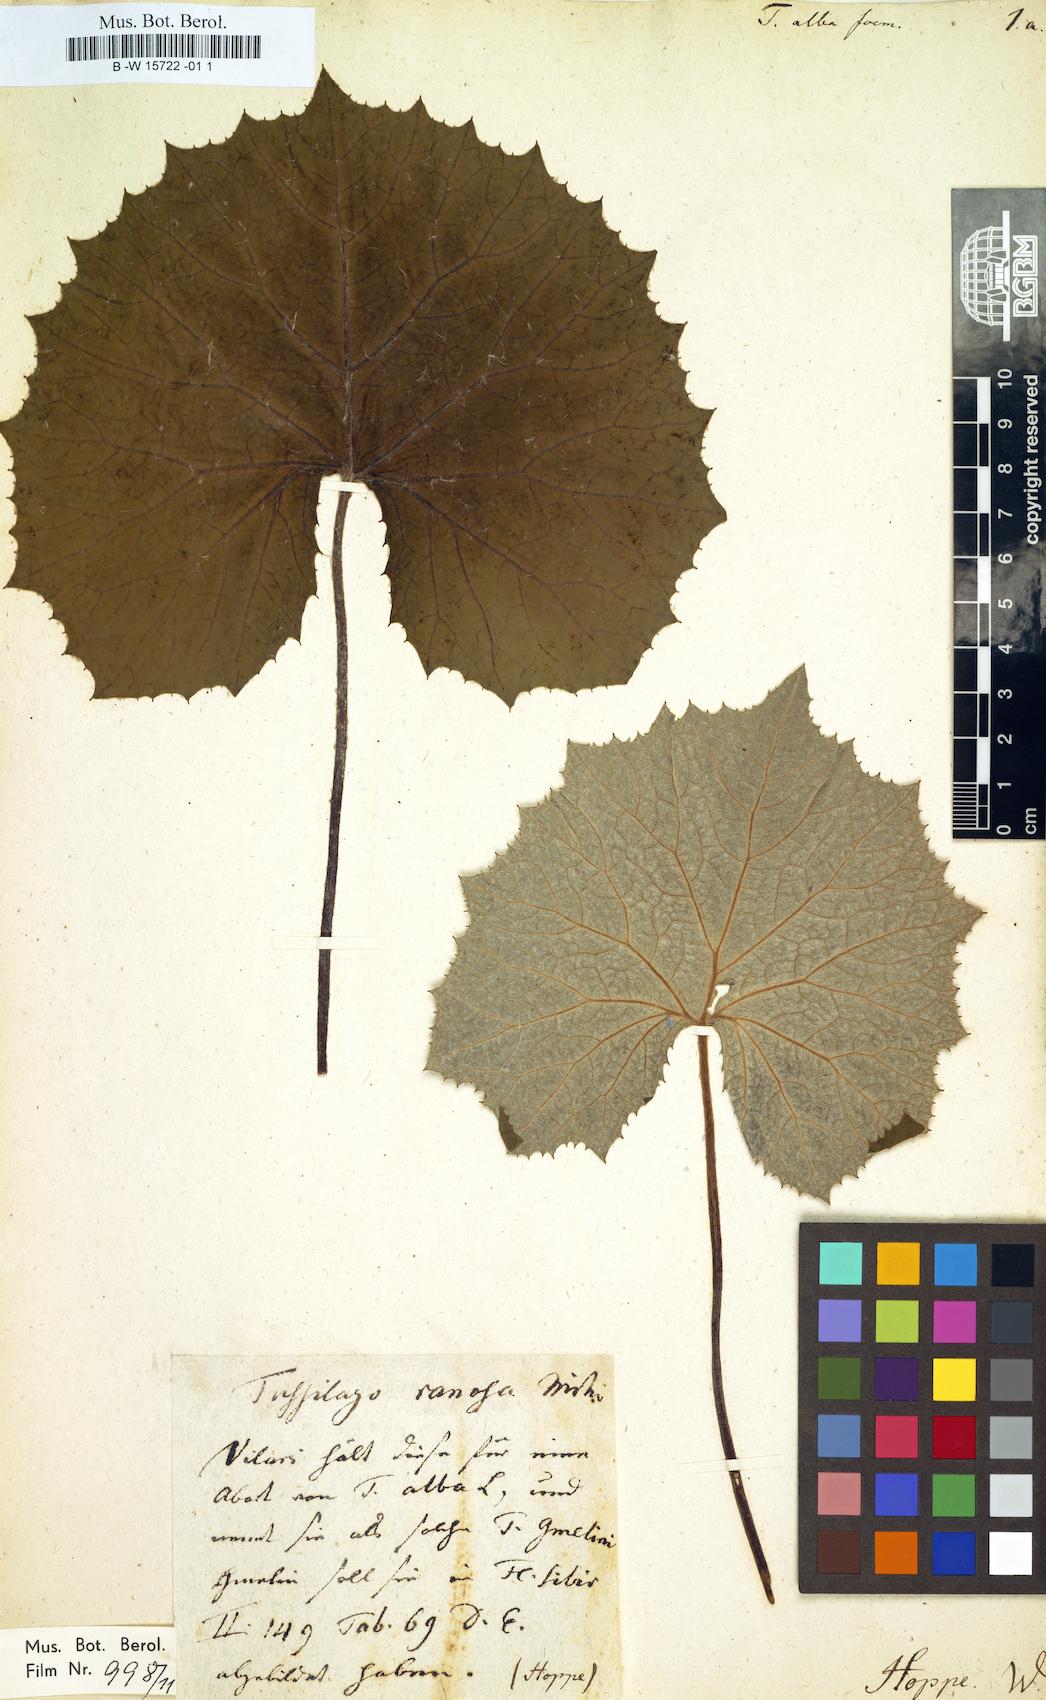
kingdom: Plantae
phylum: Tracheophyta
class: Magnoliopsida
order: Asterales
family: Asteraceae
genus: Petasites
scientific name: Petasites albus
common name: White butterbur
